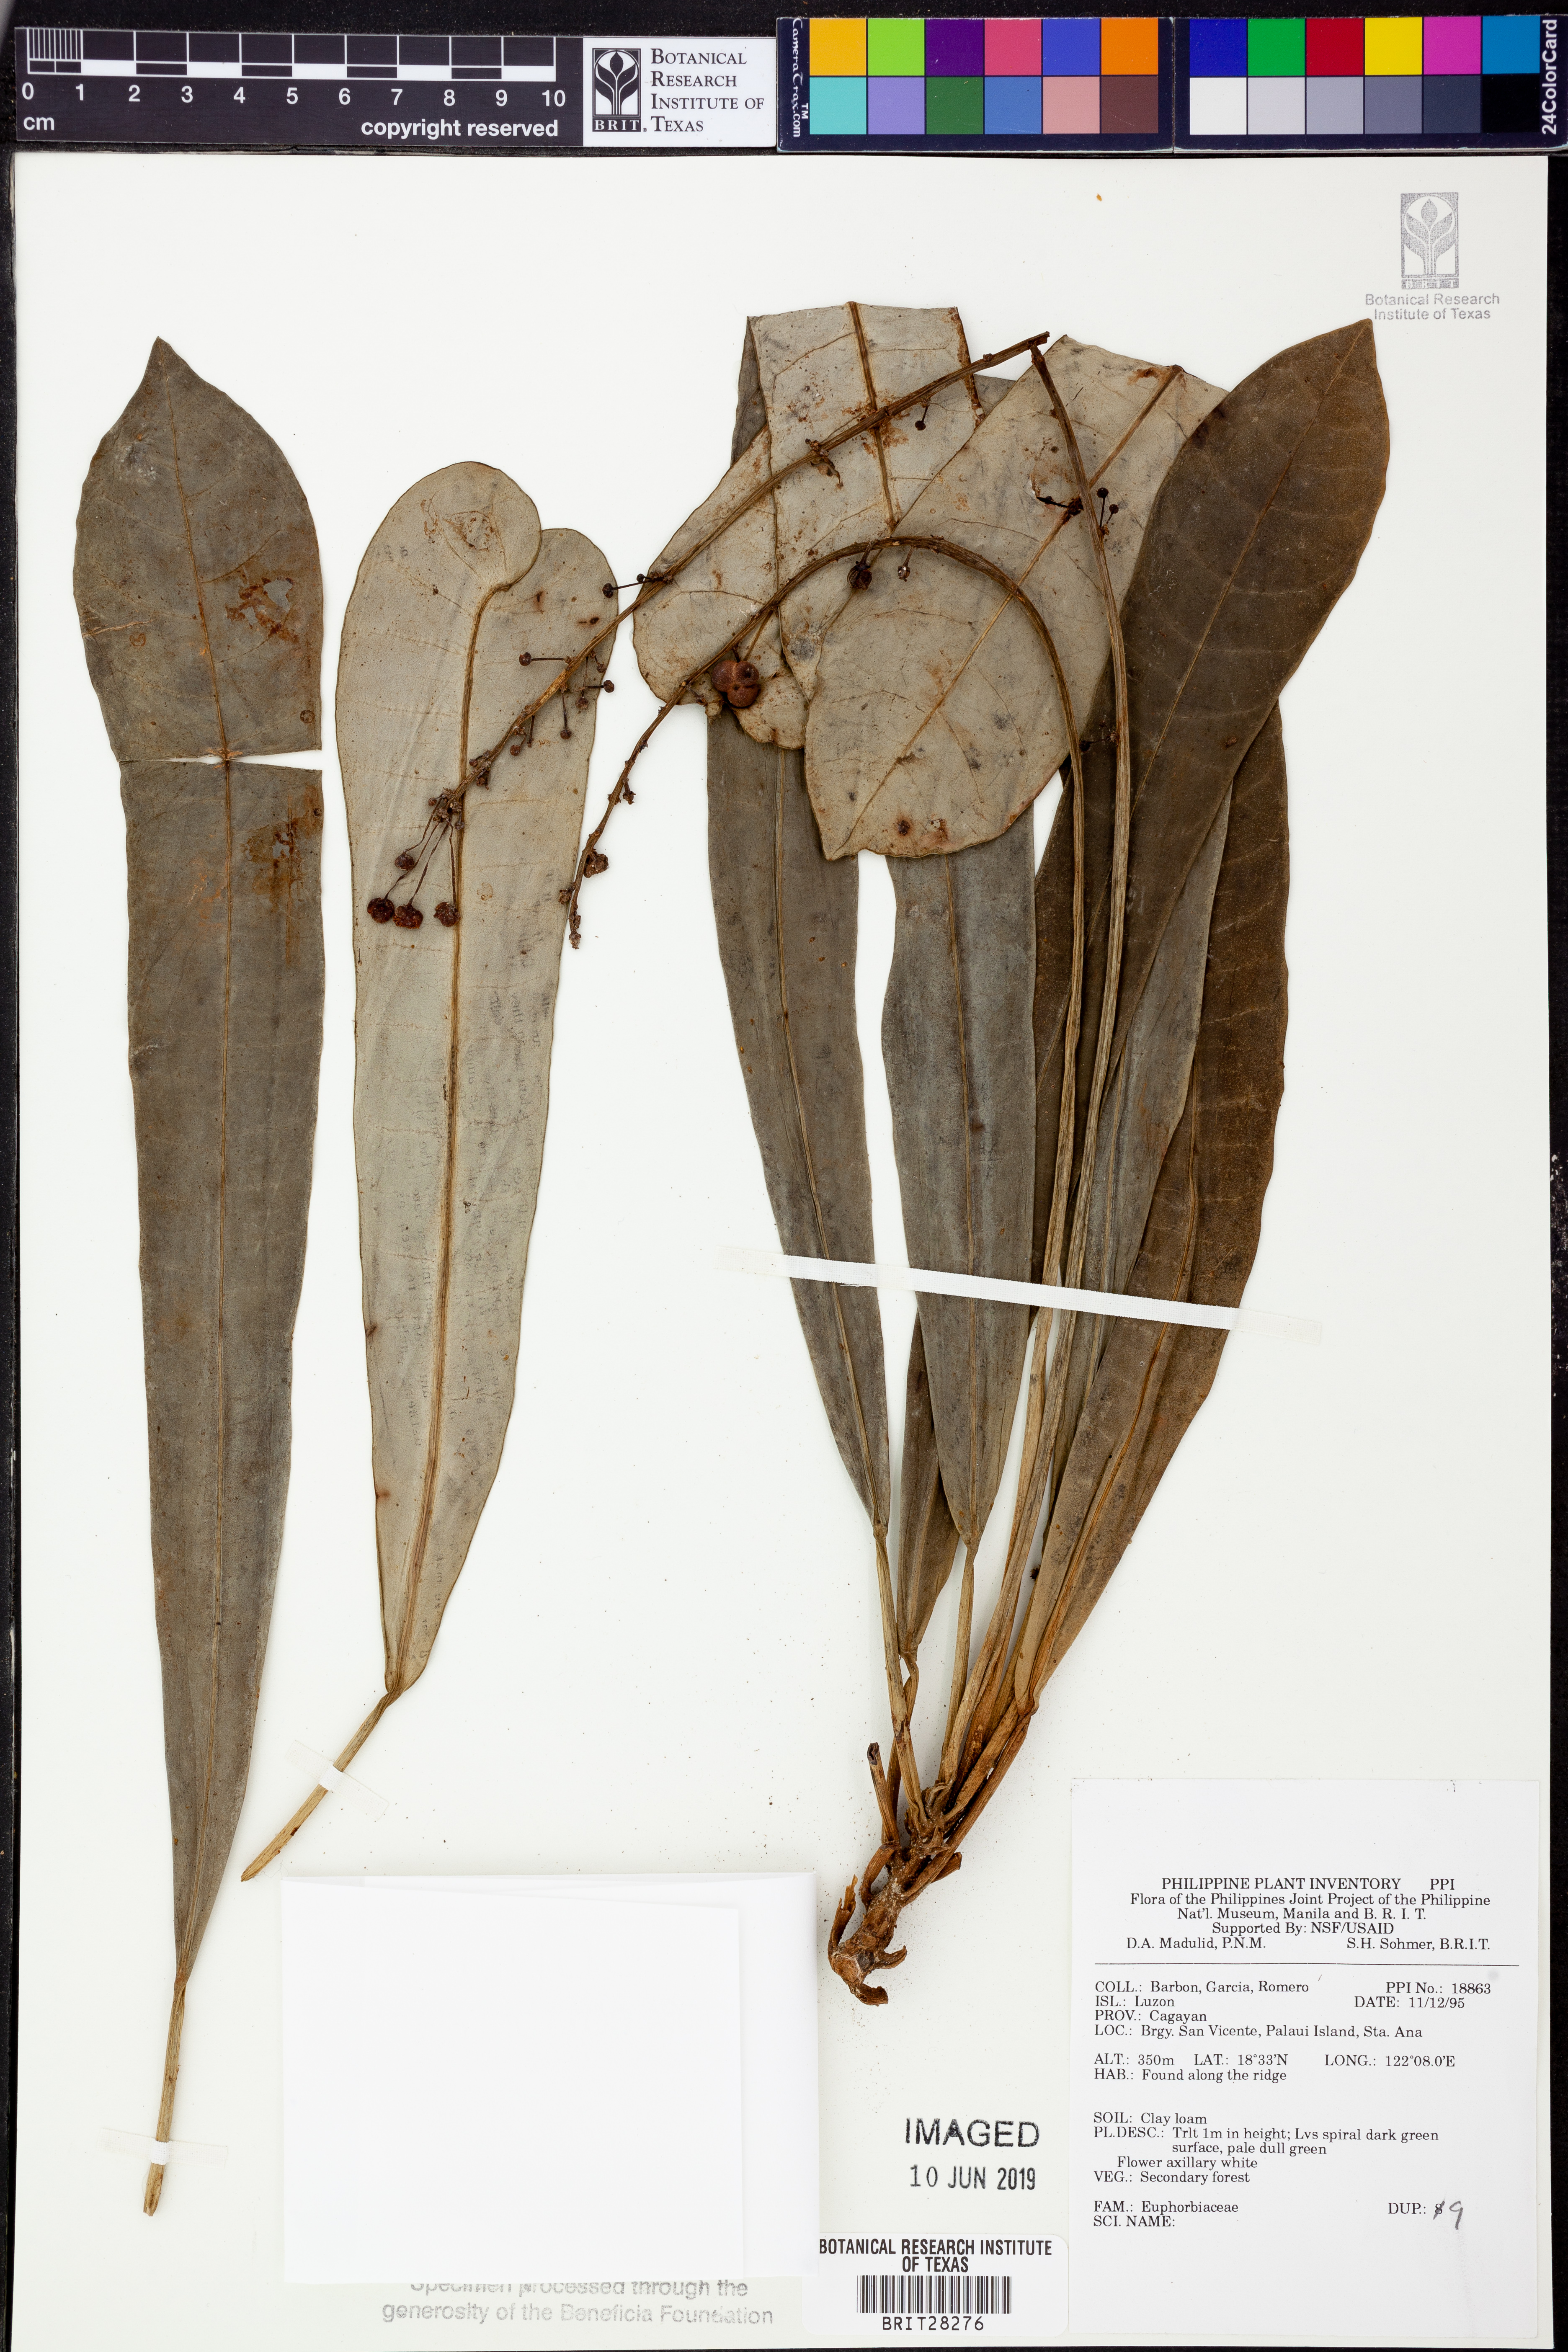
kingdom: Plantae
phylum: Tracheophyta
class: Magnoliopsida
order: Malpighiales
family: Euphorbiaceae
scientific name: Euphorbiaceae
